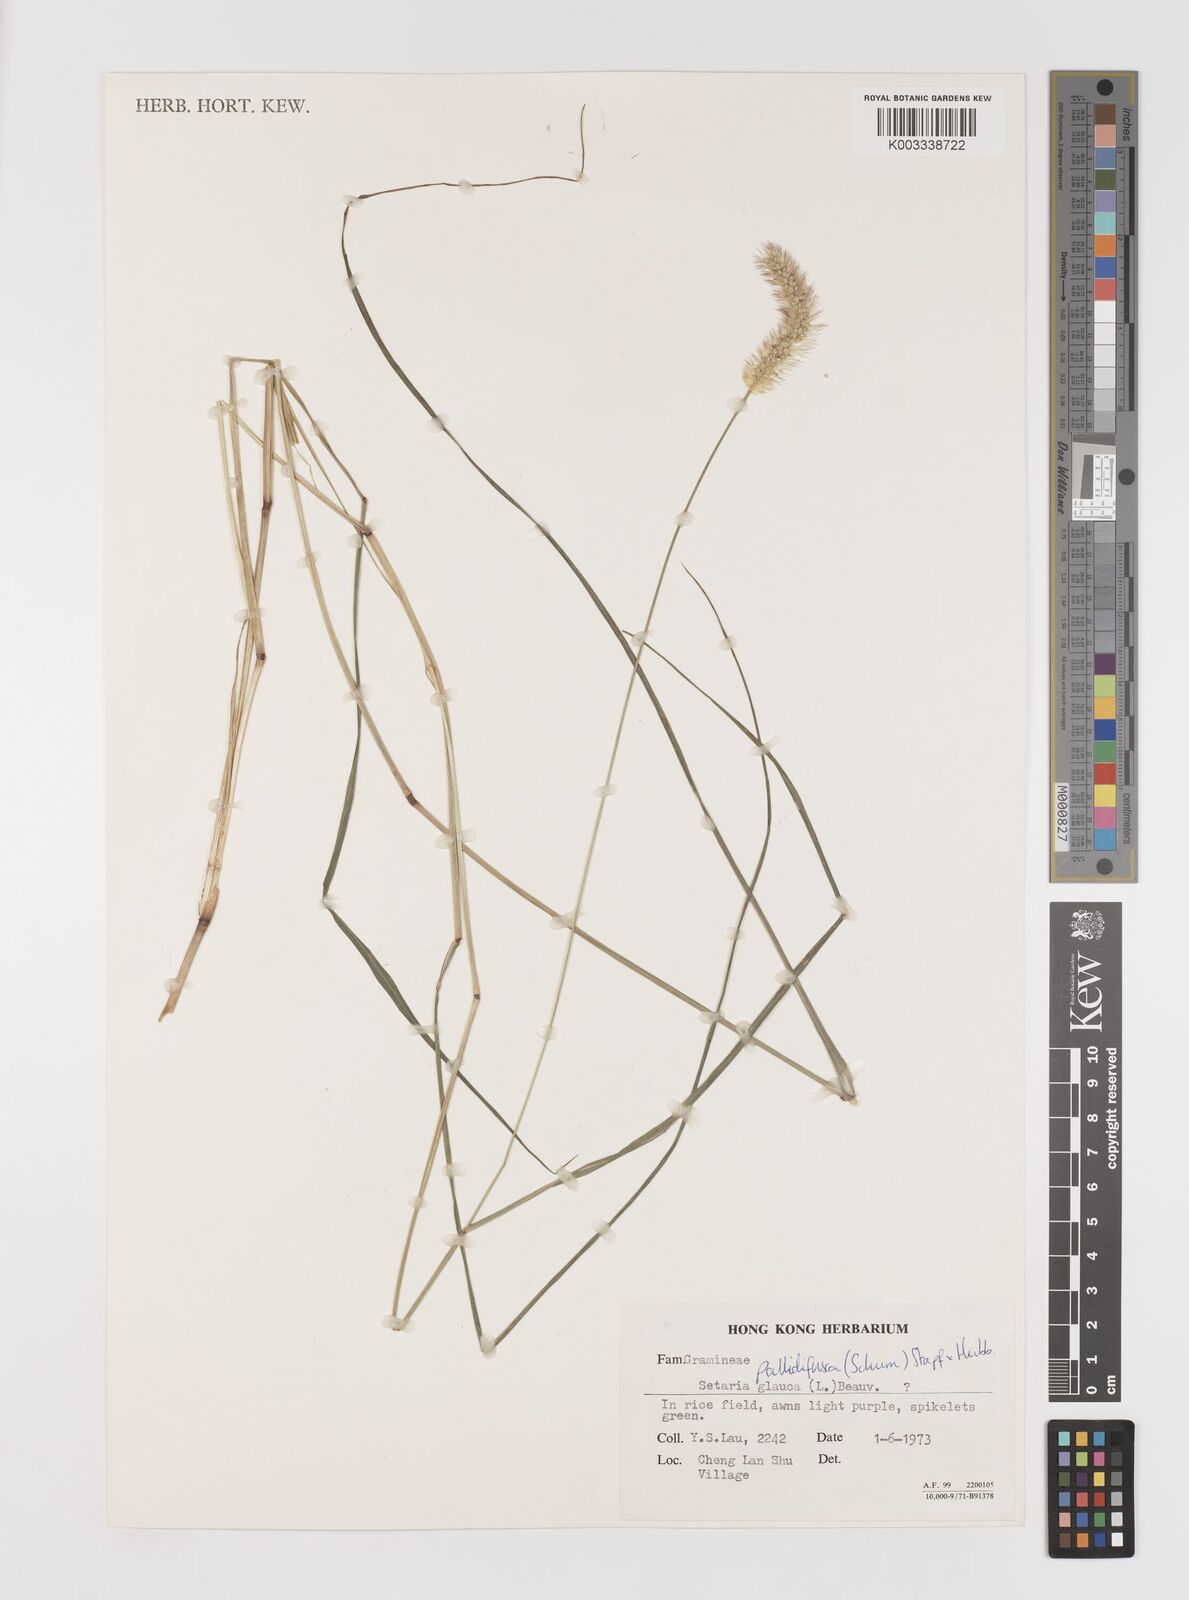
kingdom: Plantae
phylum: Tracheophyta
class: Liliopsida
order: Poales
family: Poaceae
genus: Setaria
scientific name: Setaria parviflora
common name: Knotroot bristle-grass
